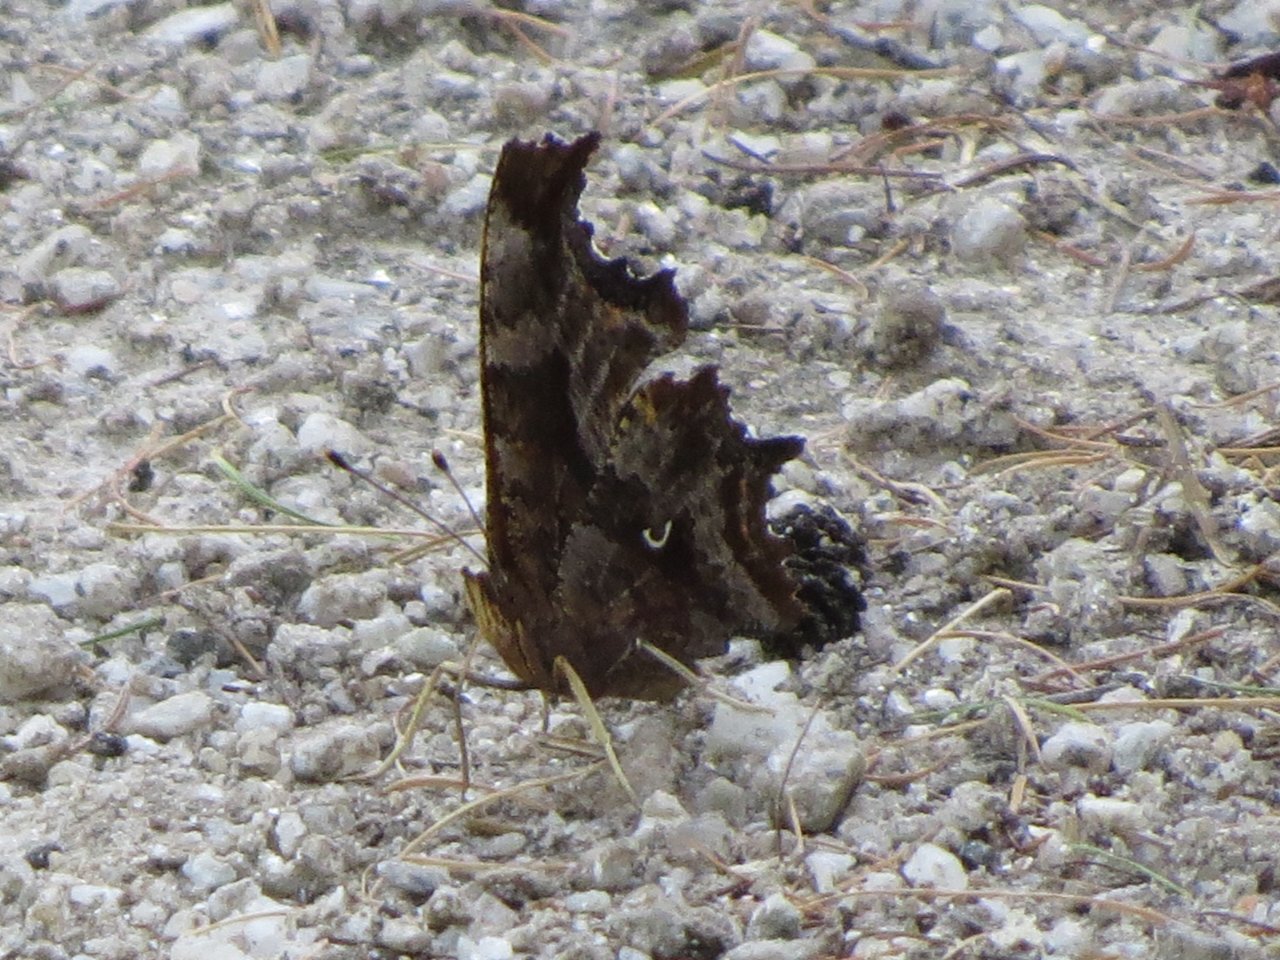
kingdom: Animalia
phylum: Arthropoda
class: Insecta
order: Lepidoptera
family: Nymphalidae
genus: Polygonia
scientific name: Polygonia comma
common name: Eastern Comma
